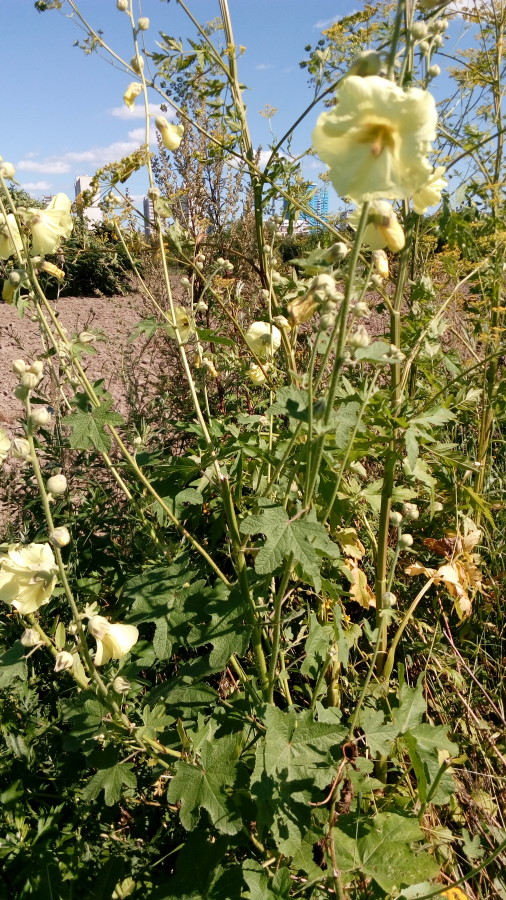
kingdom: Plantae
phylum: Tracheophyta
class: Magnoliopsida
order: Malvales
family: Malvaceae
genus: Alcea
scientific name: Alcea rugosa
